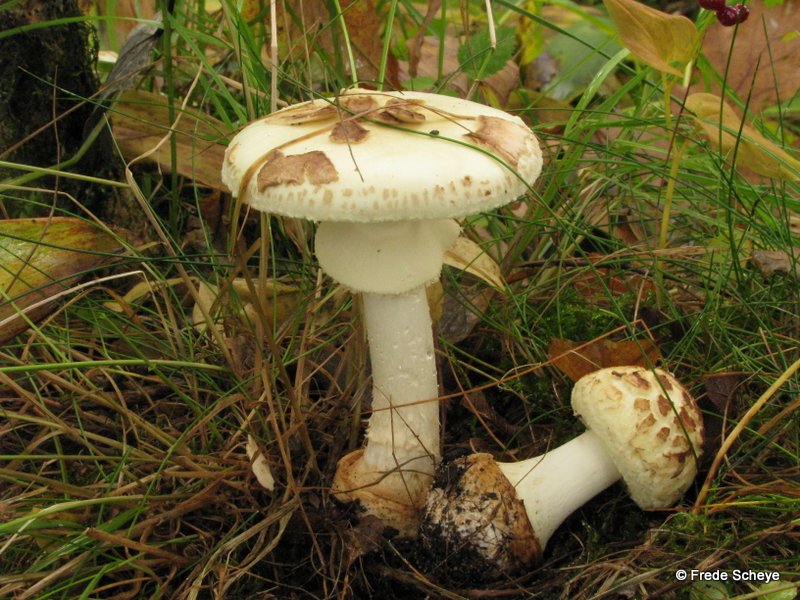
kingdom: Fungi
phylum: Basidiomycota
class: Agaricomycetes
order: Agaricales
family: Amanitaceae
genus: Amanita
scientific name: Amanita citrina
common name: kugleknoldet fluesvamp
